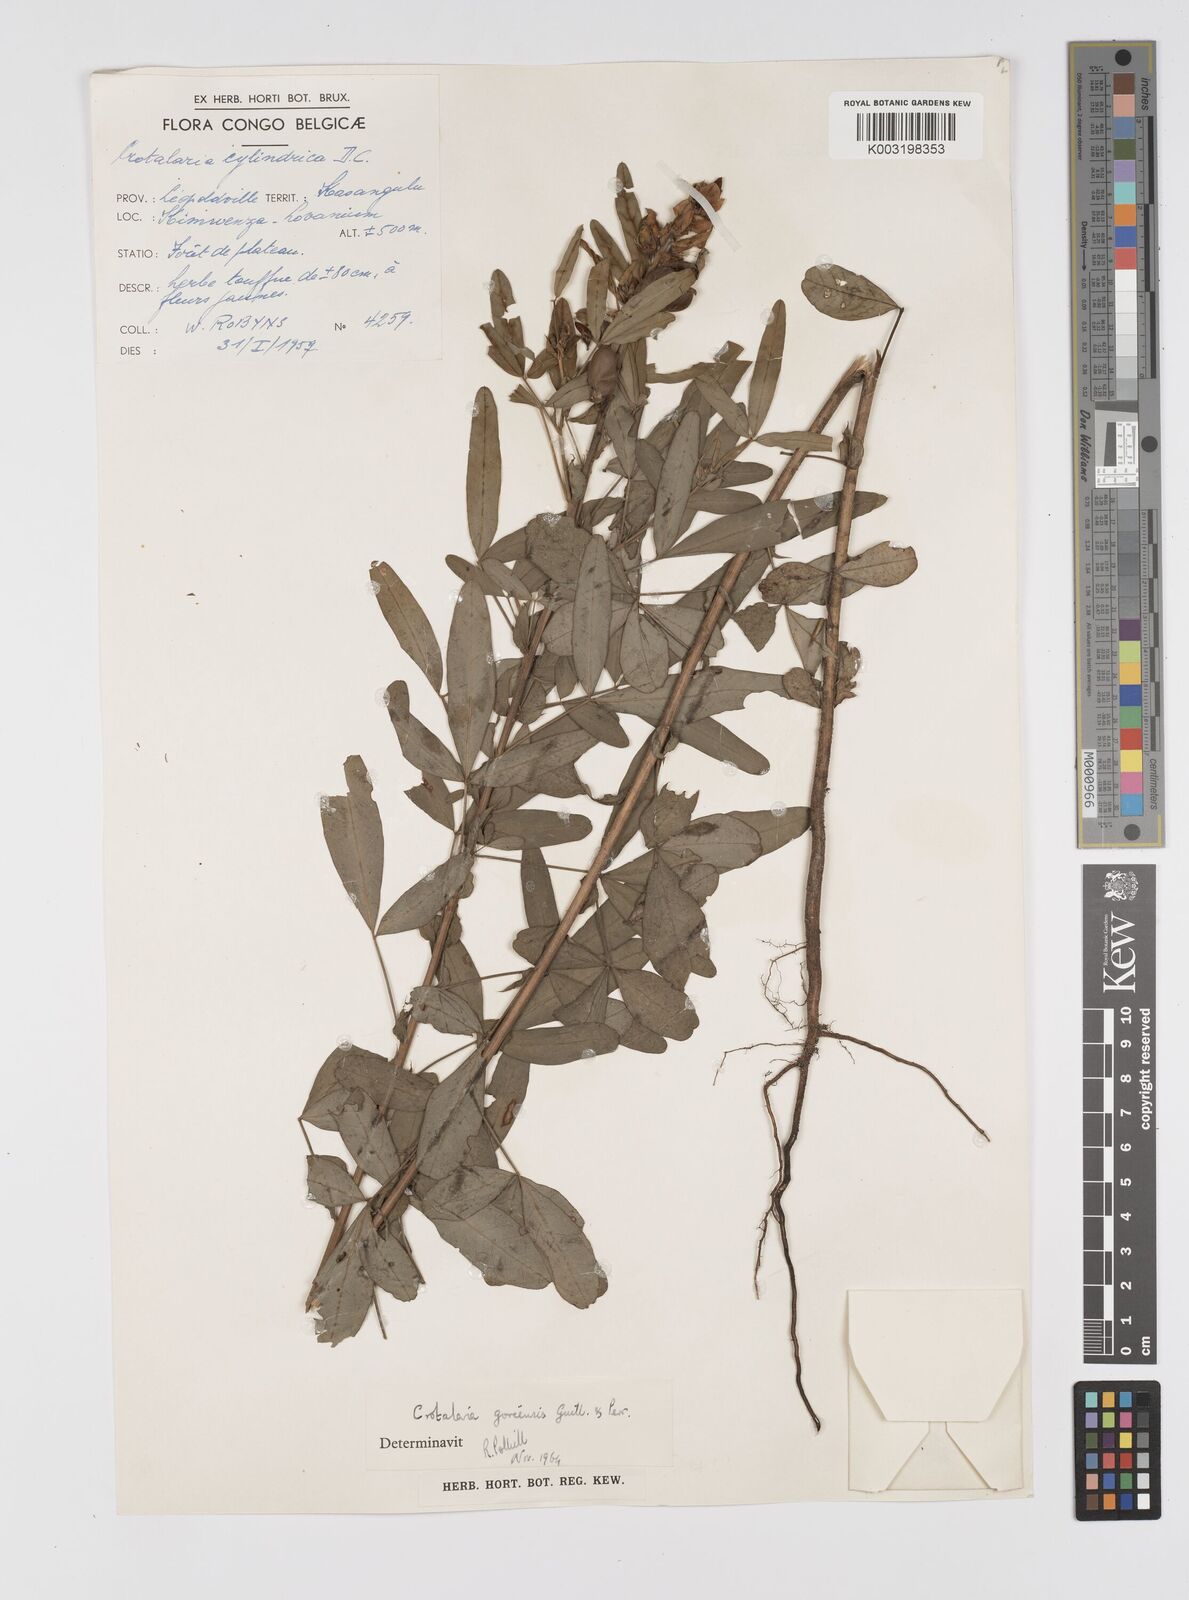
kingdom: Plantae
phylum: Tracheophyta
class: Magnoliopsida
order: Fabales
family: Fabaceae
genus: Crotalaria
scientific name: Crotalaria goreensis
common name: Gambia-pea
